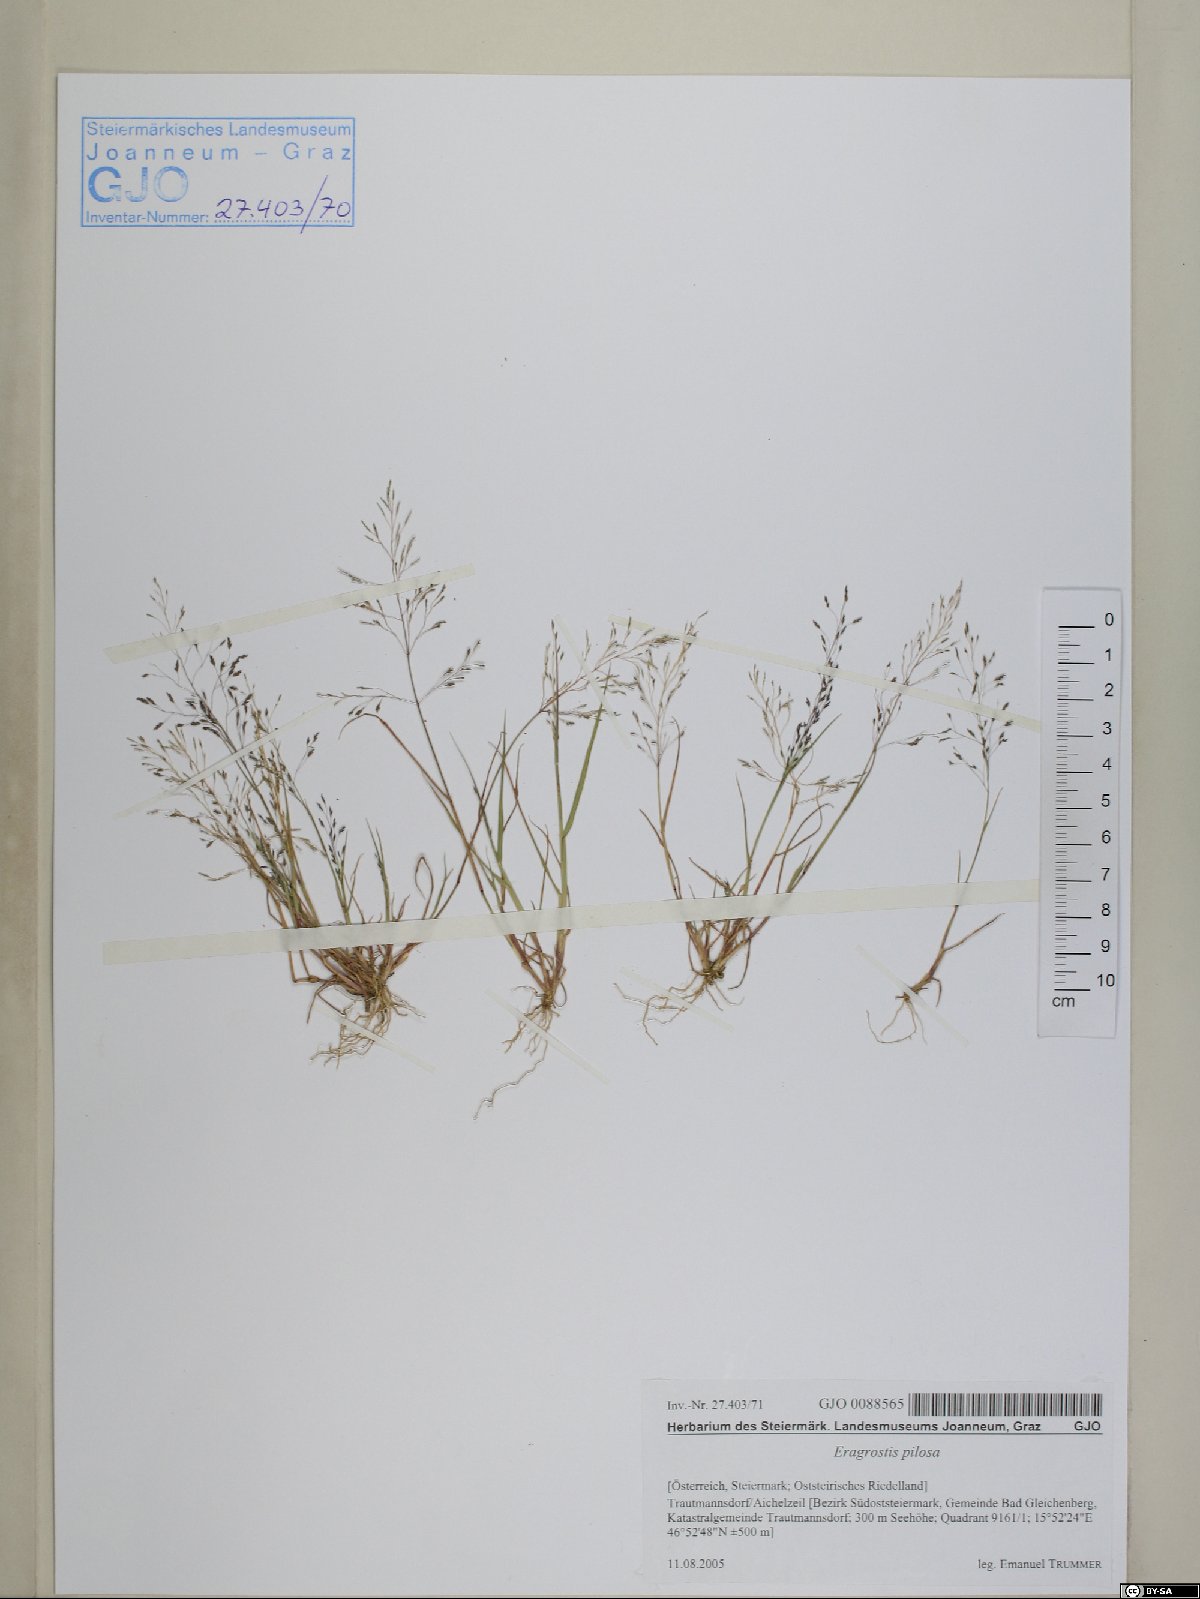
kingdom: Plantae
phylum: Tracheophyta
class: Liliopsida
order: Poales
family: Poaceae
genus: Eragrostis
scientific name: Eragrostis pilosa
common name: Indian lovegrass
